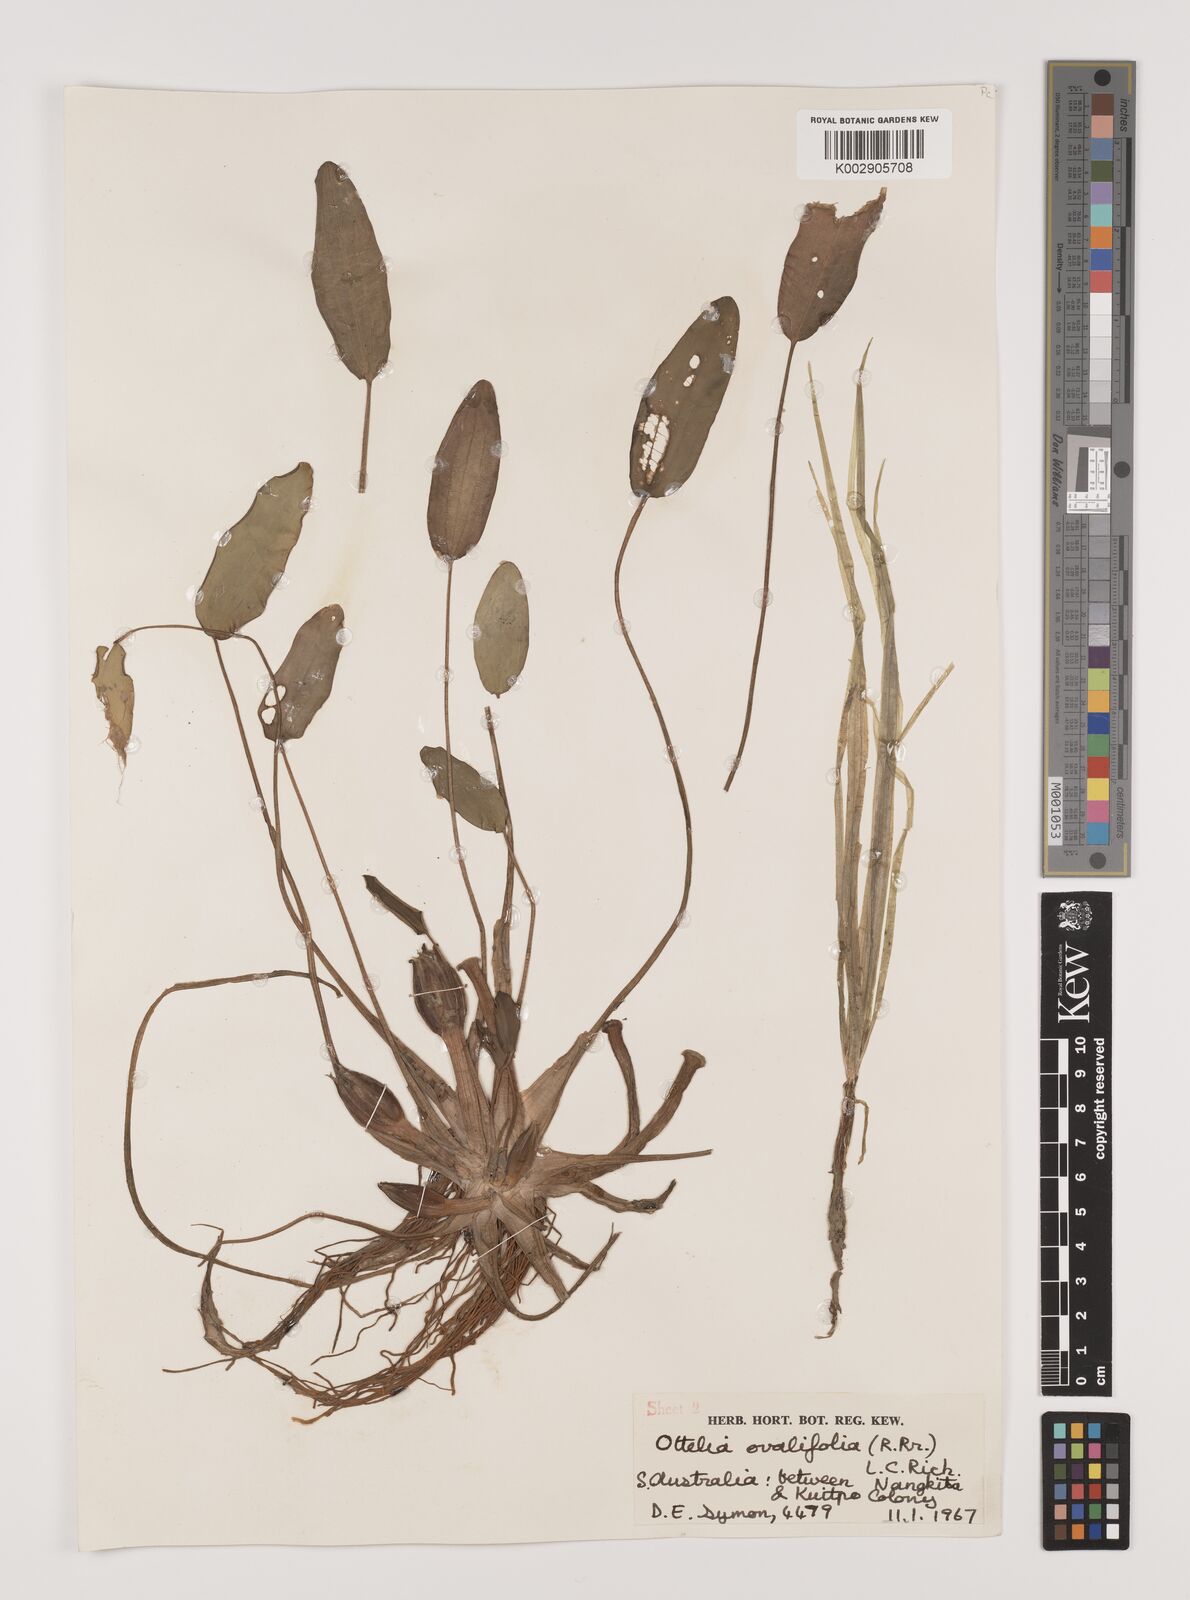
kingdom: Plantae
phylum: Tracheophyta
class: Liliopsida
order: Alismatales
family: Hydrocharitaceae
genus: Ottelia
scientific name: Ottelia ovalifolia
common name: Swamp-lily
